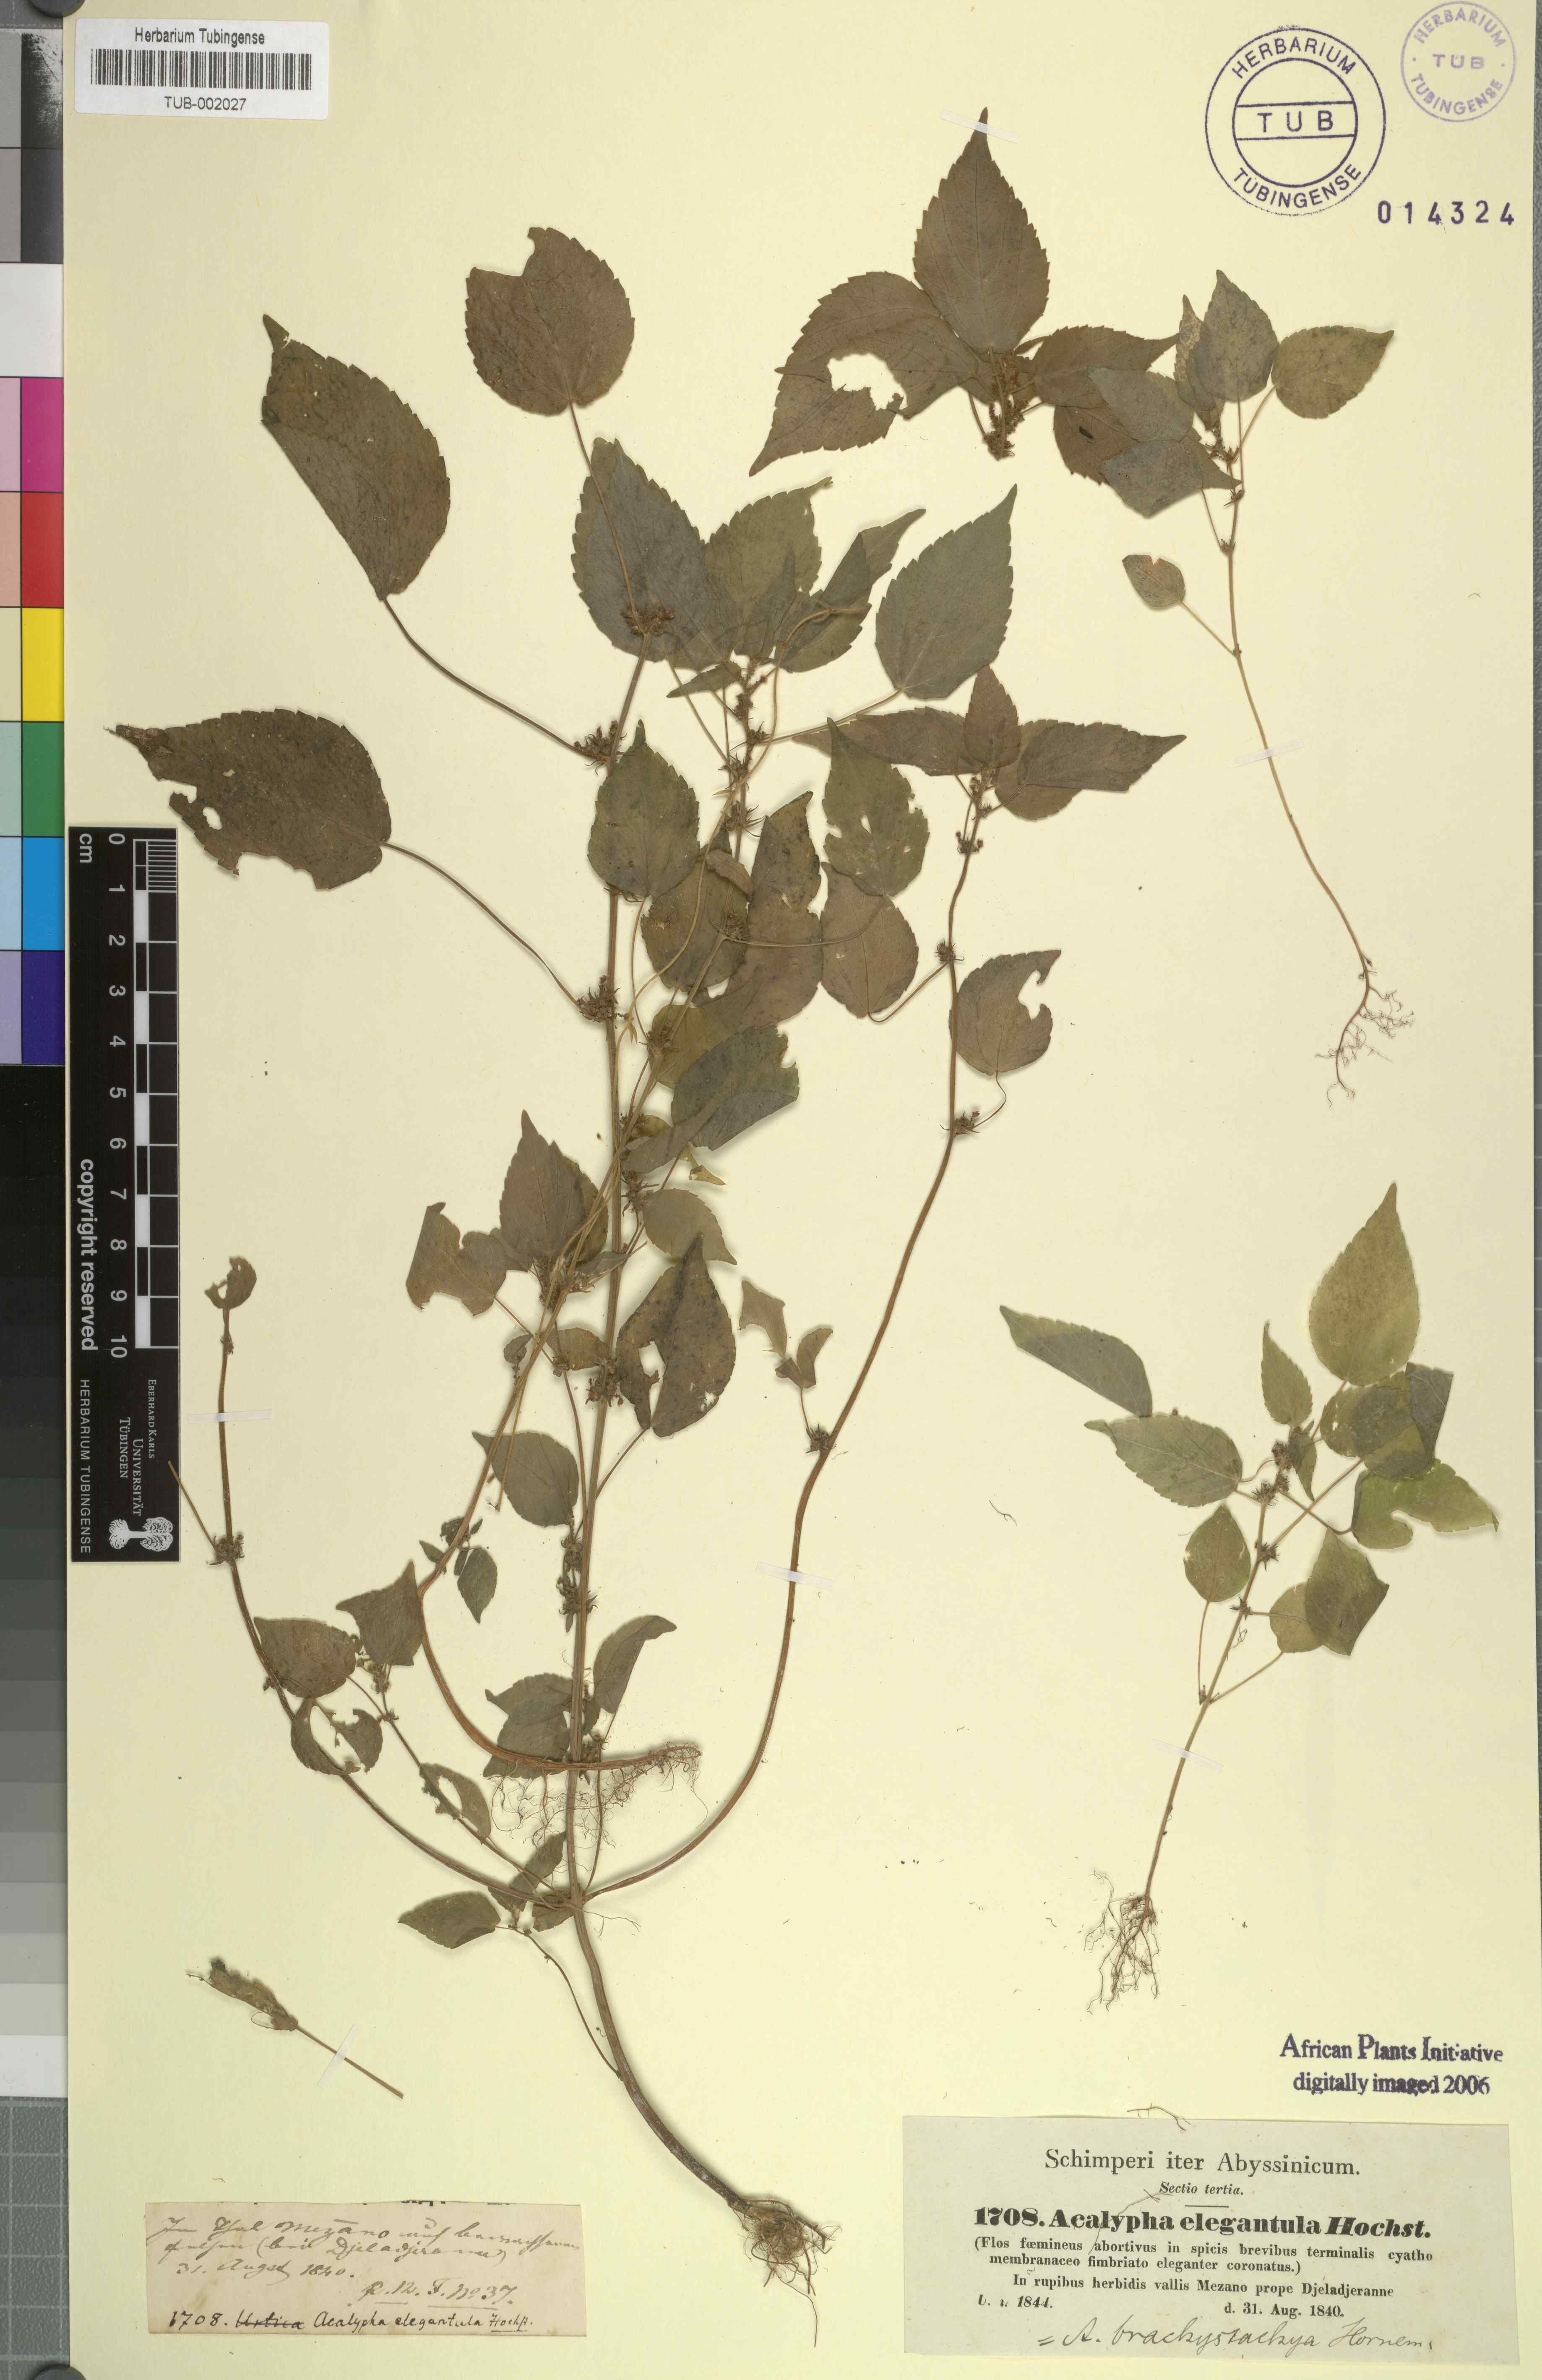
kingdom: Plantae
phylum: Tracheophyta
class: Magnoliopsida
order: Malpighiales
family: Euphorbiaceae
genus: Acalypha
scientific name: Acalypha brachystachya
